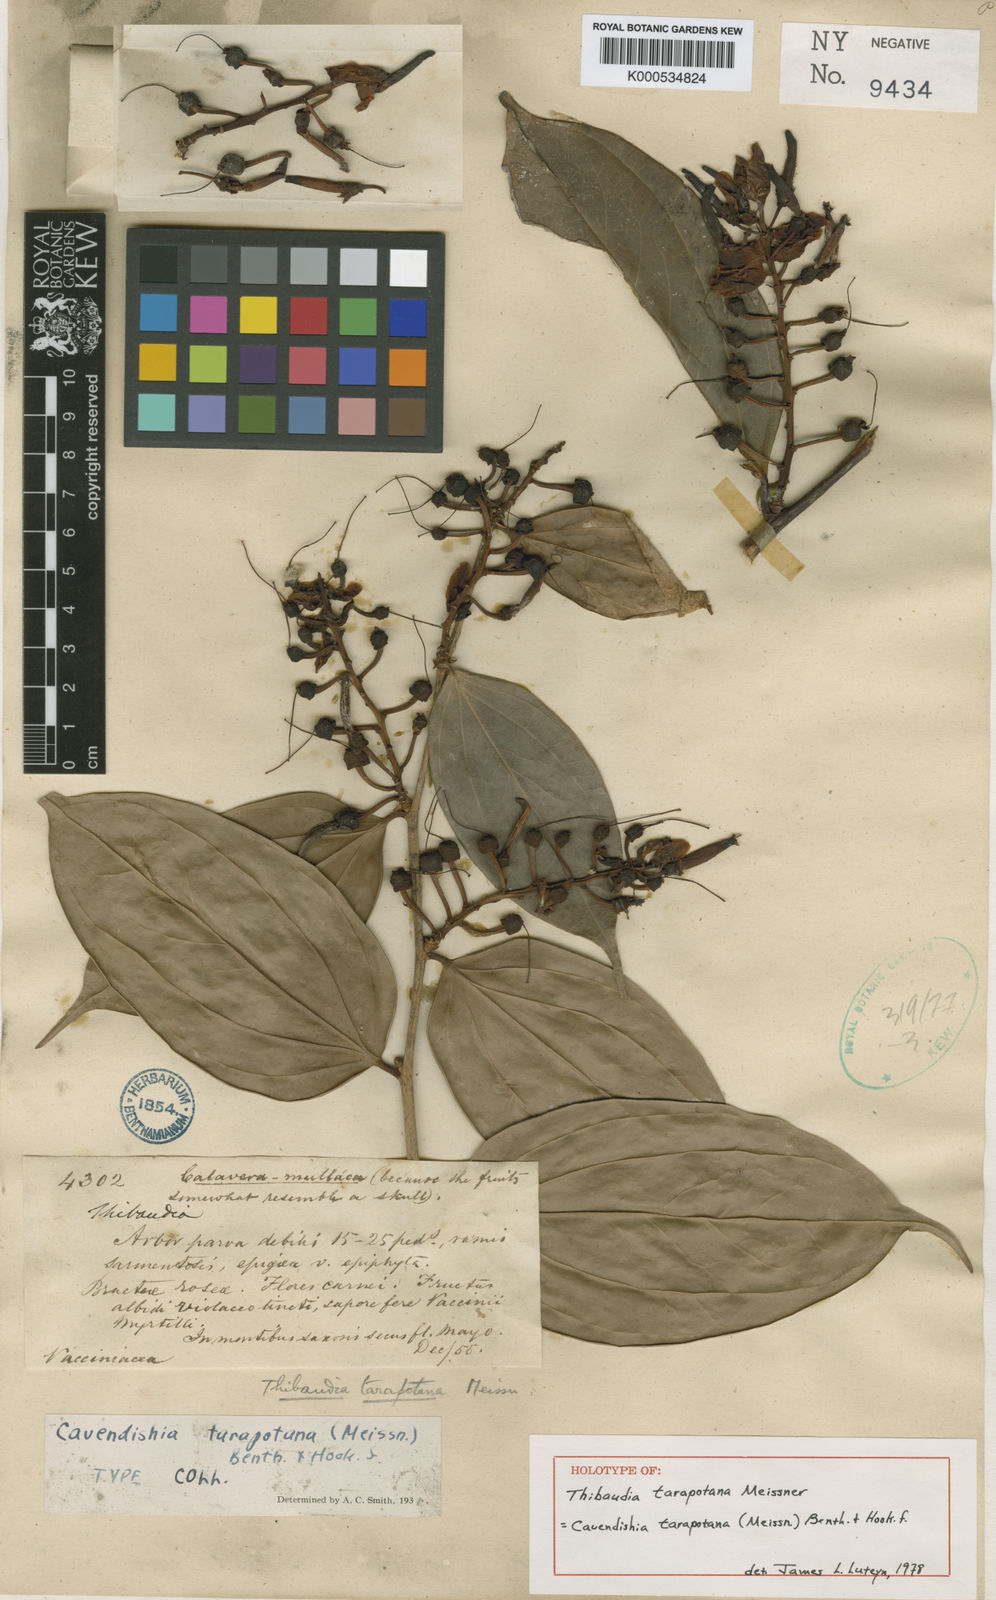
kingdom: Plantae
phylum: Tracheophyta
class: Magnoliopsida
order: Ericales
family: Ericaceae
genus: Cavendishia
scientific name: Cavendishia tarapotana
